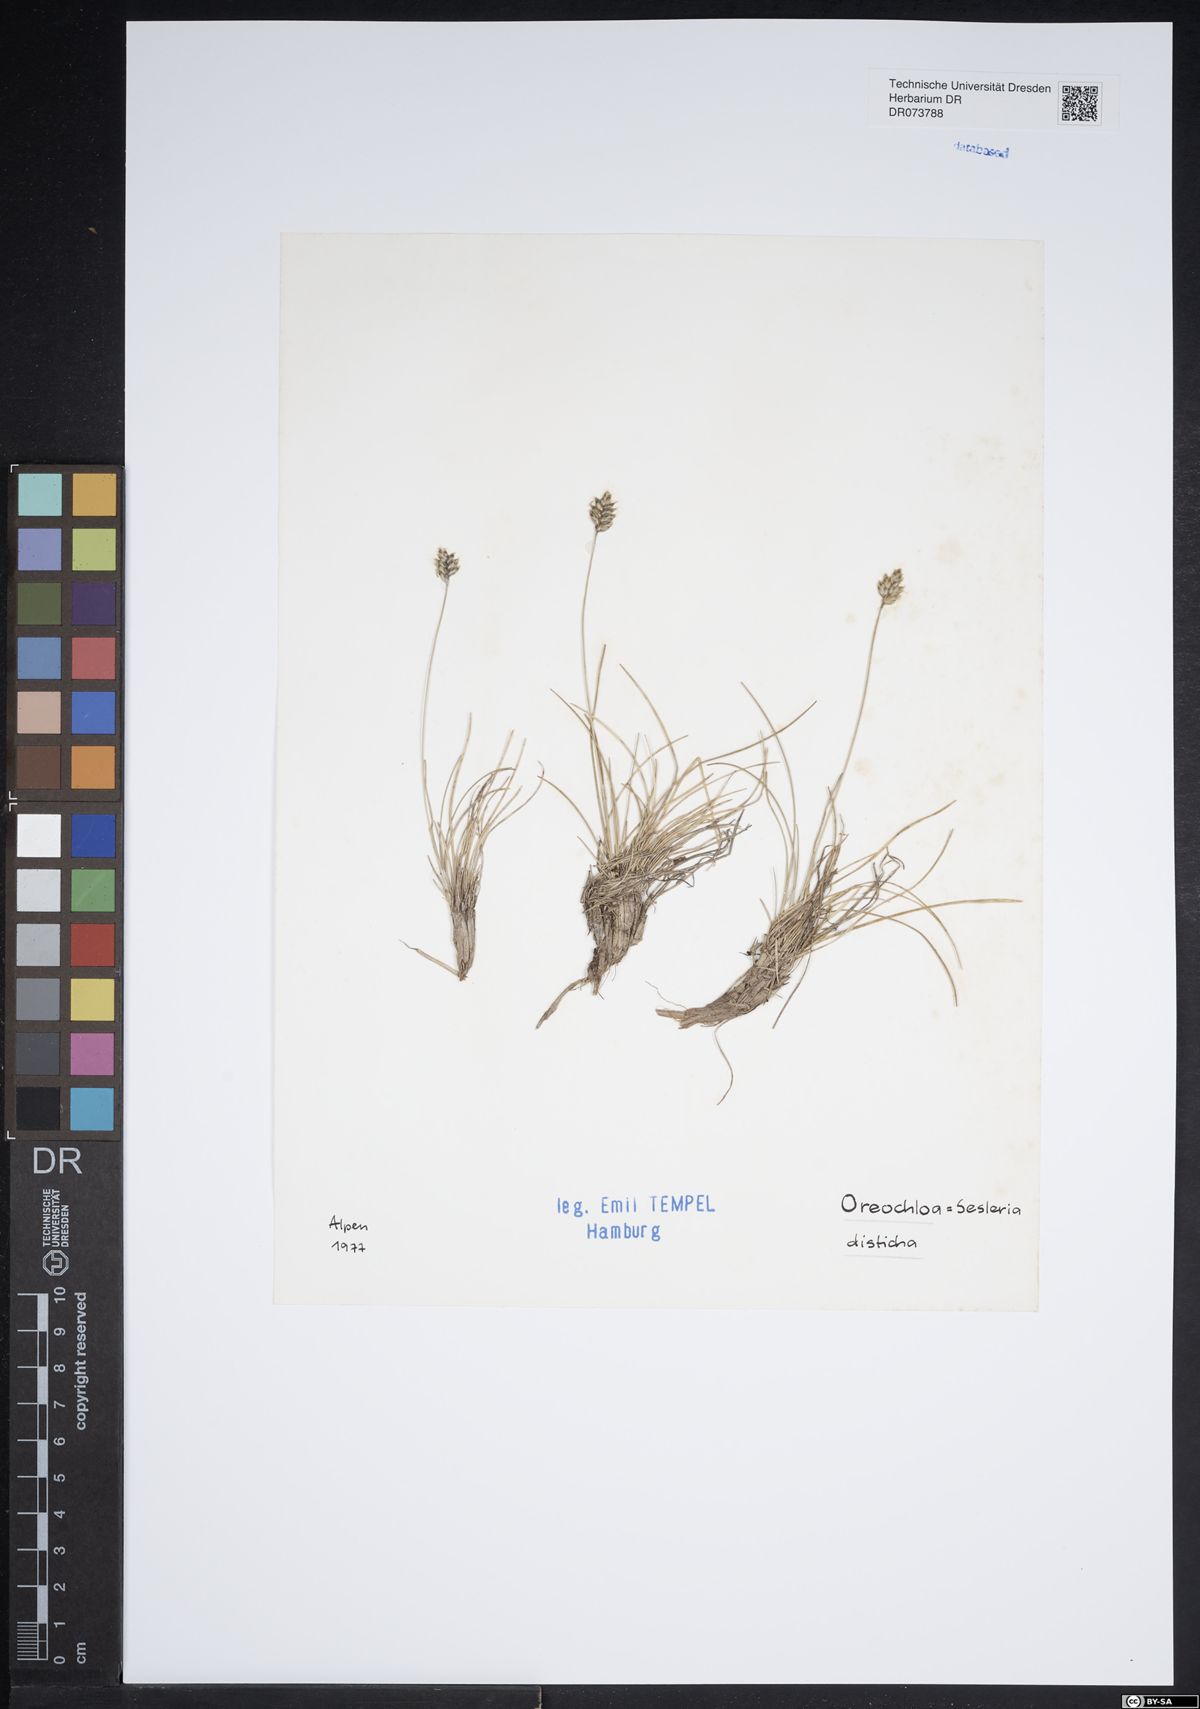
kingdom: Plantae
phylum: Tracheophyta
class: Liliopsida
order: Poales
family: Poaceae
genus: Oreochloa
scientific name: Oreochloa disticha
